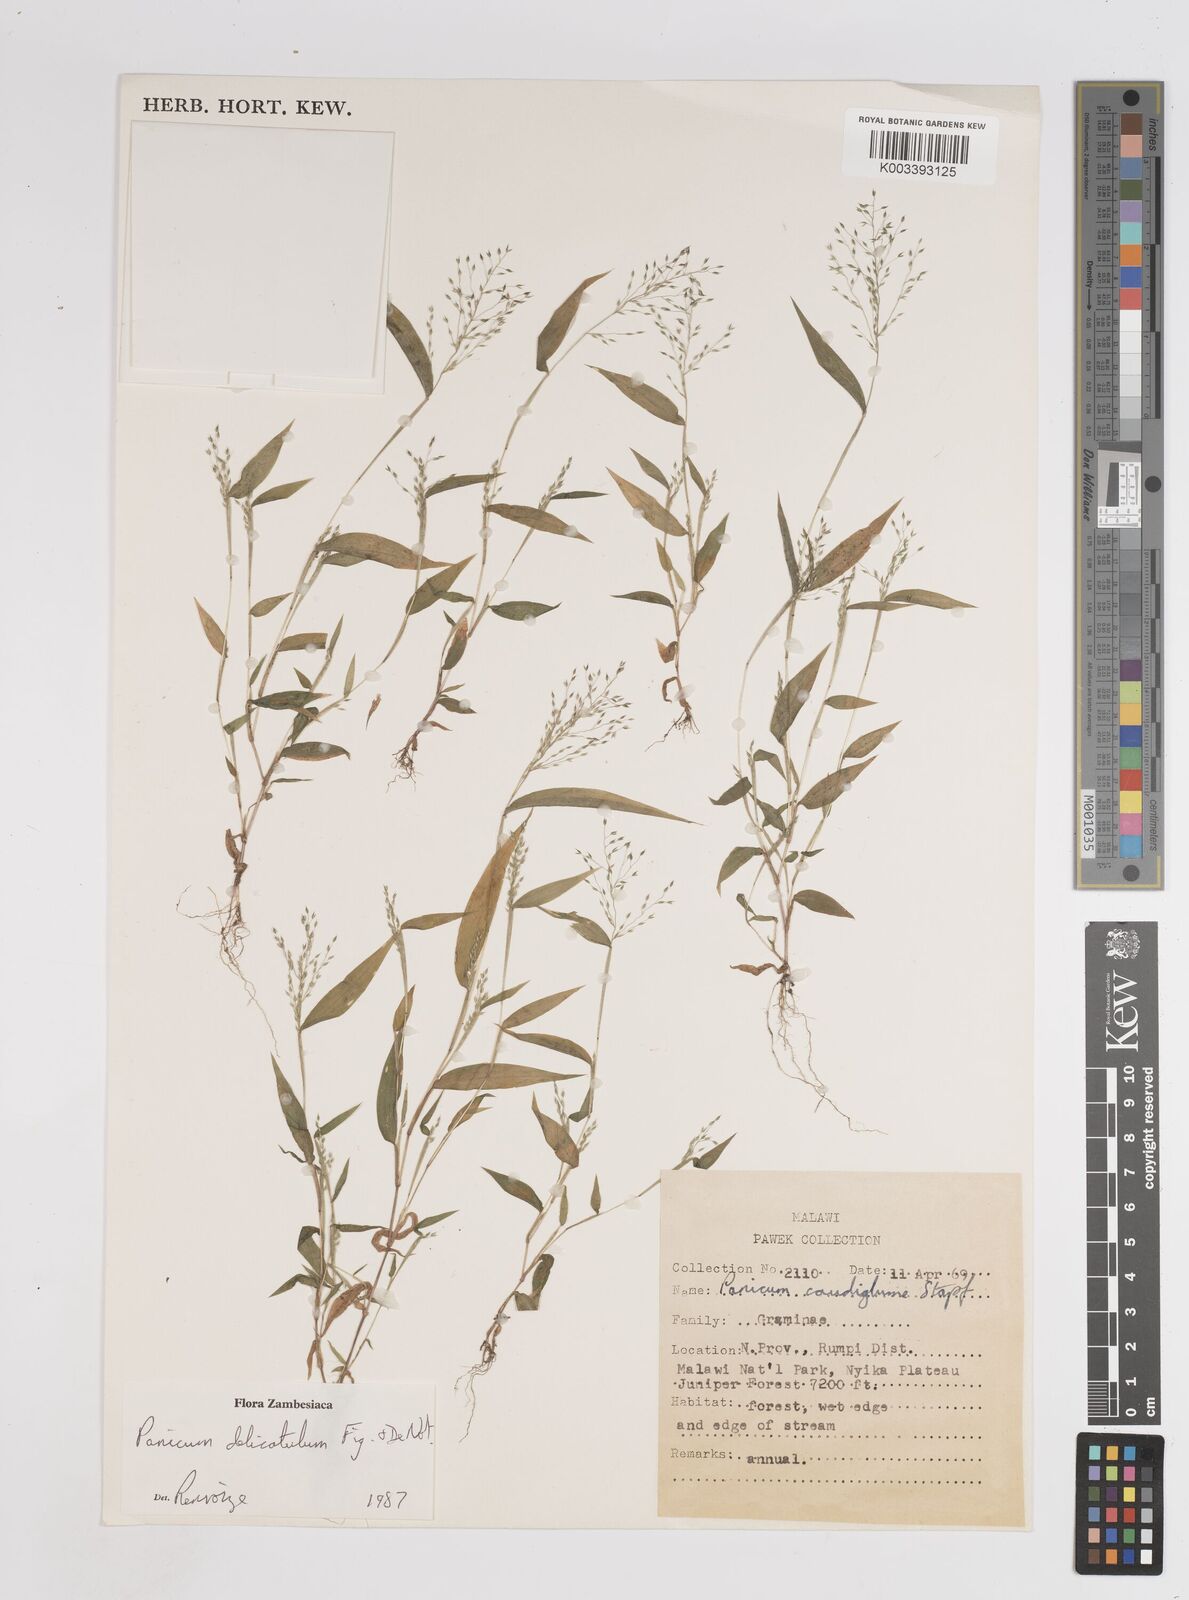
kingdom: Plantae
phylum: Tracheophyta
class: Liliopsida
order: Poales
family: Poaceae
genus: Panicum
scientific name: Panicum delicatulum
